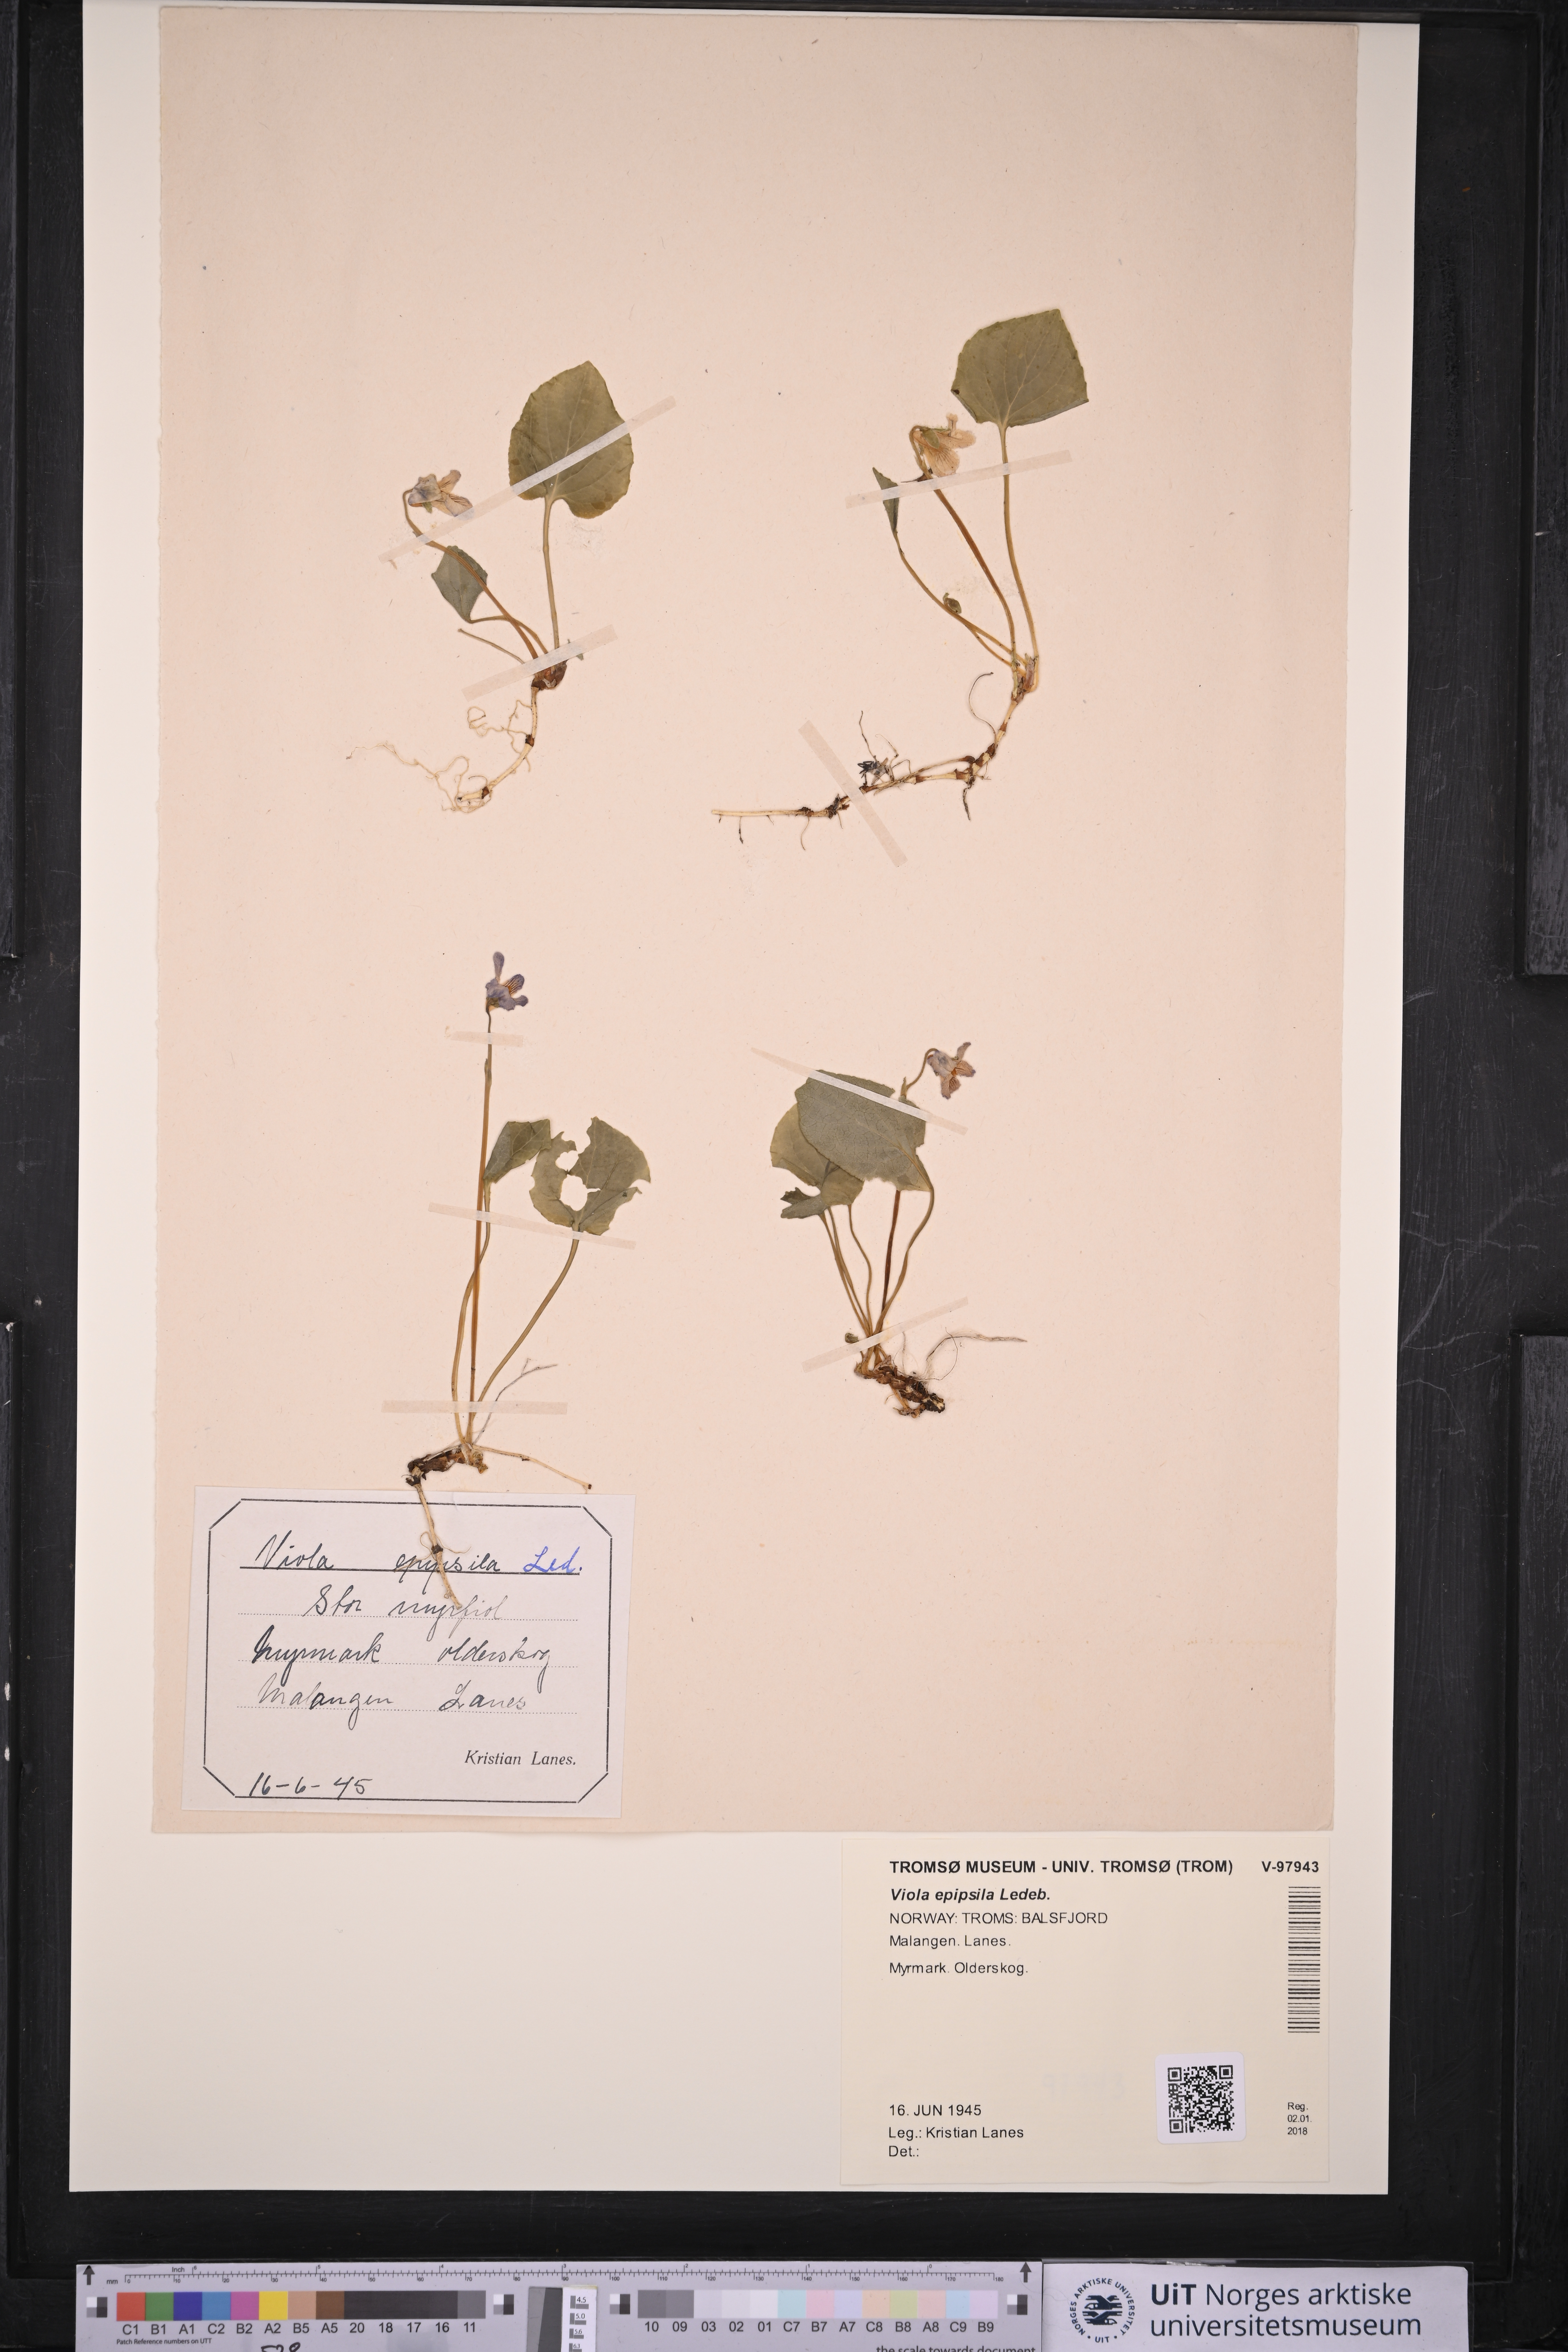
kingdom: Plantae
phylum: Tracheophyta
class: Magnoliopsida
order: Malpighiales
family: Violaceae
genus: Viola
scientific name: Viola epipsila
